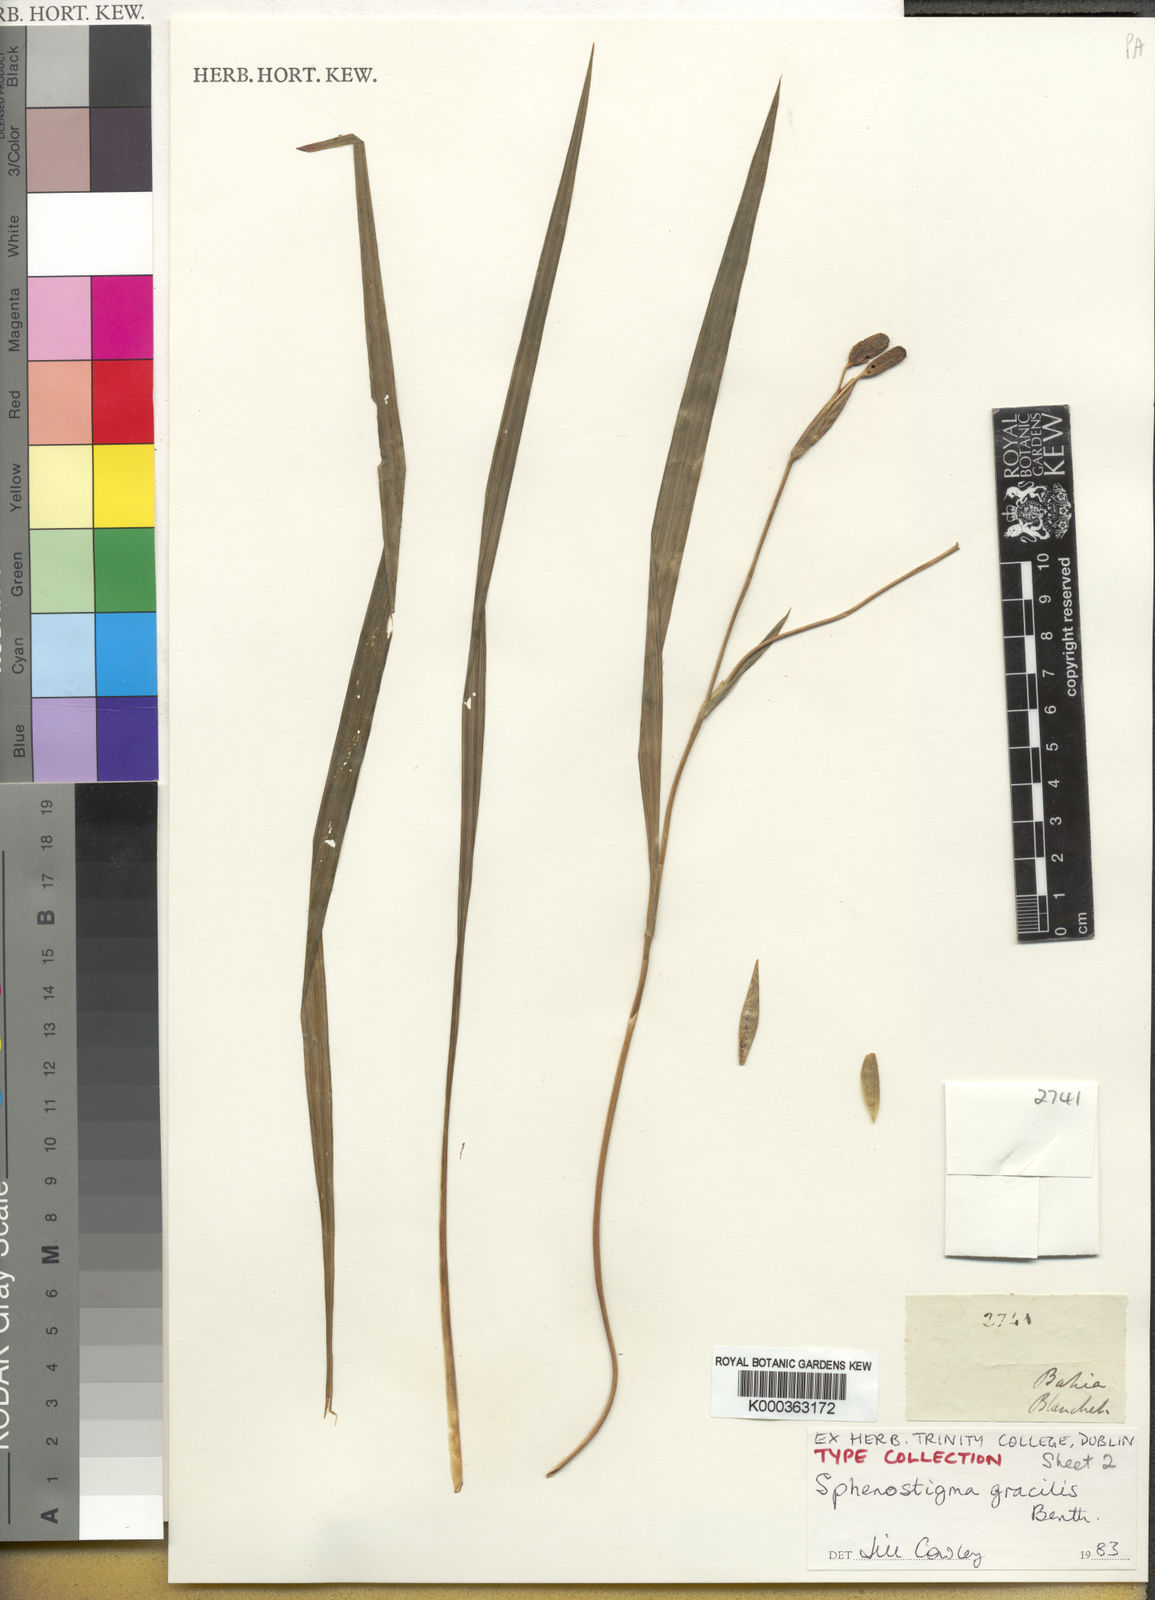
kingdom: Plantae
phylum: Tracheophyta
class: Liliopsida
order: Asparagales
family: Iridaceae
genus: Larentia
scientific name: Larentia linearis
